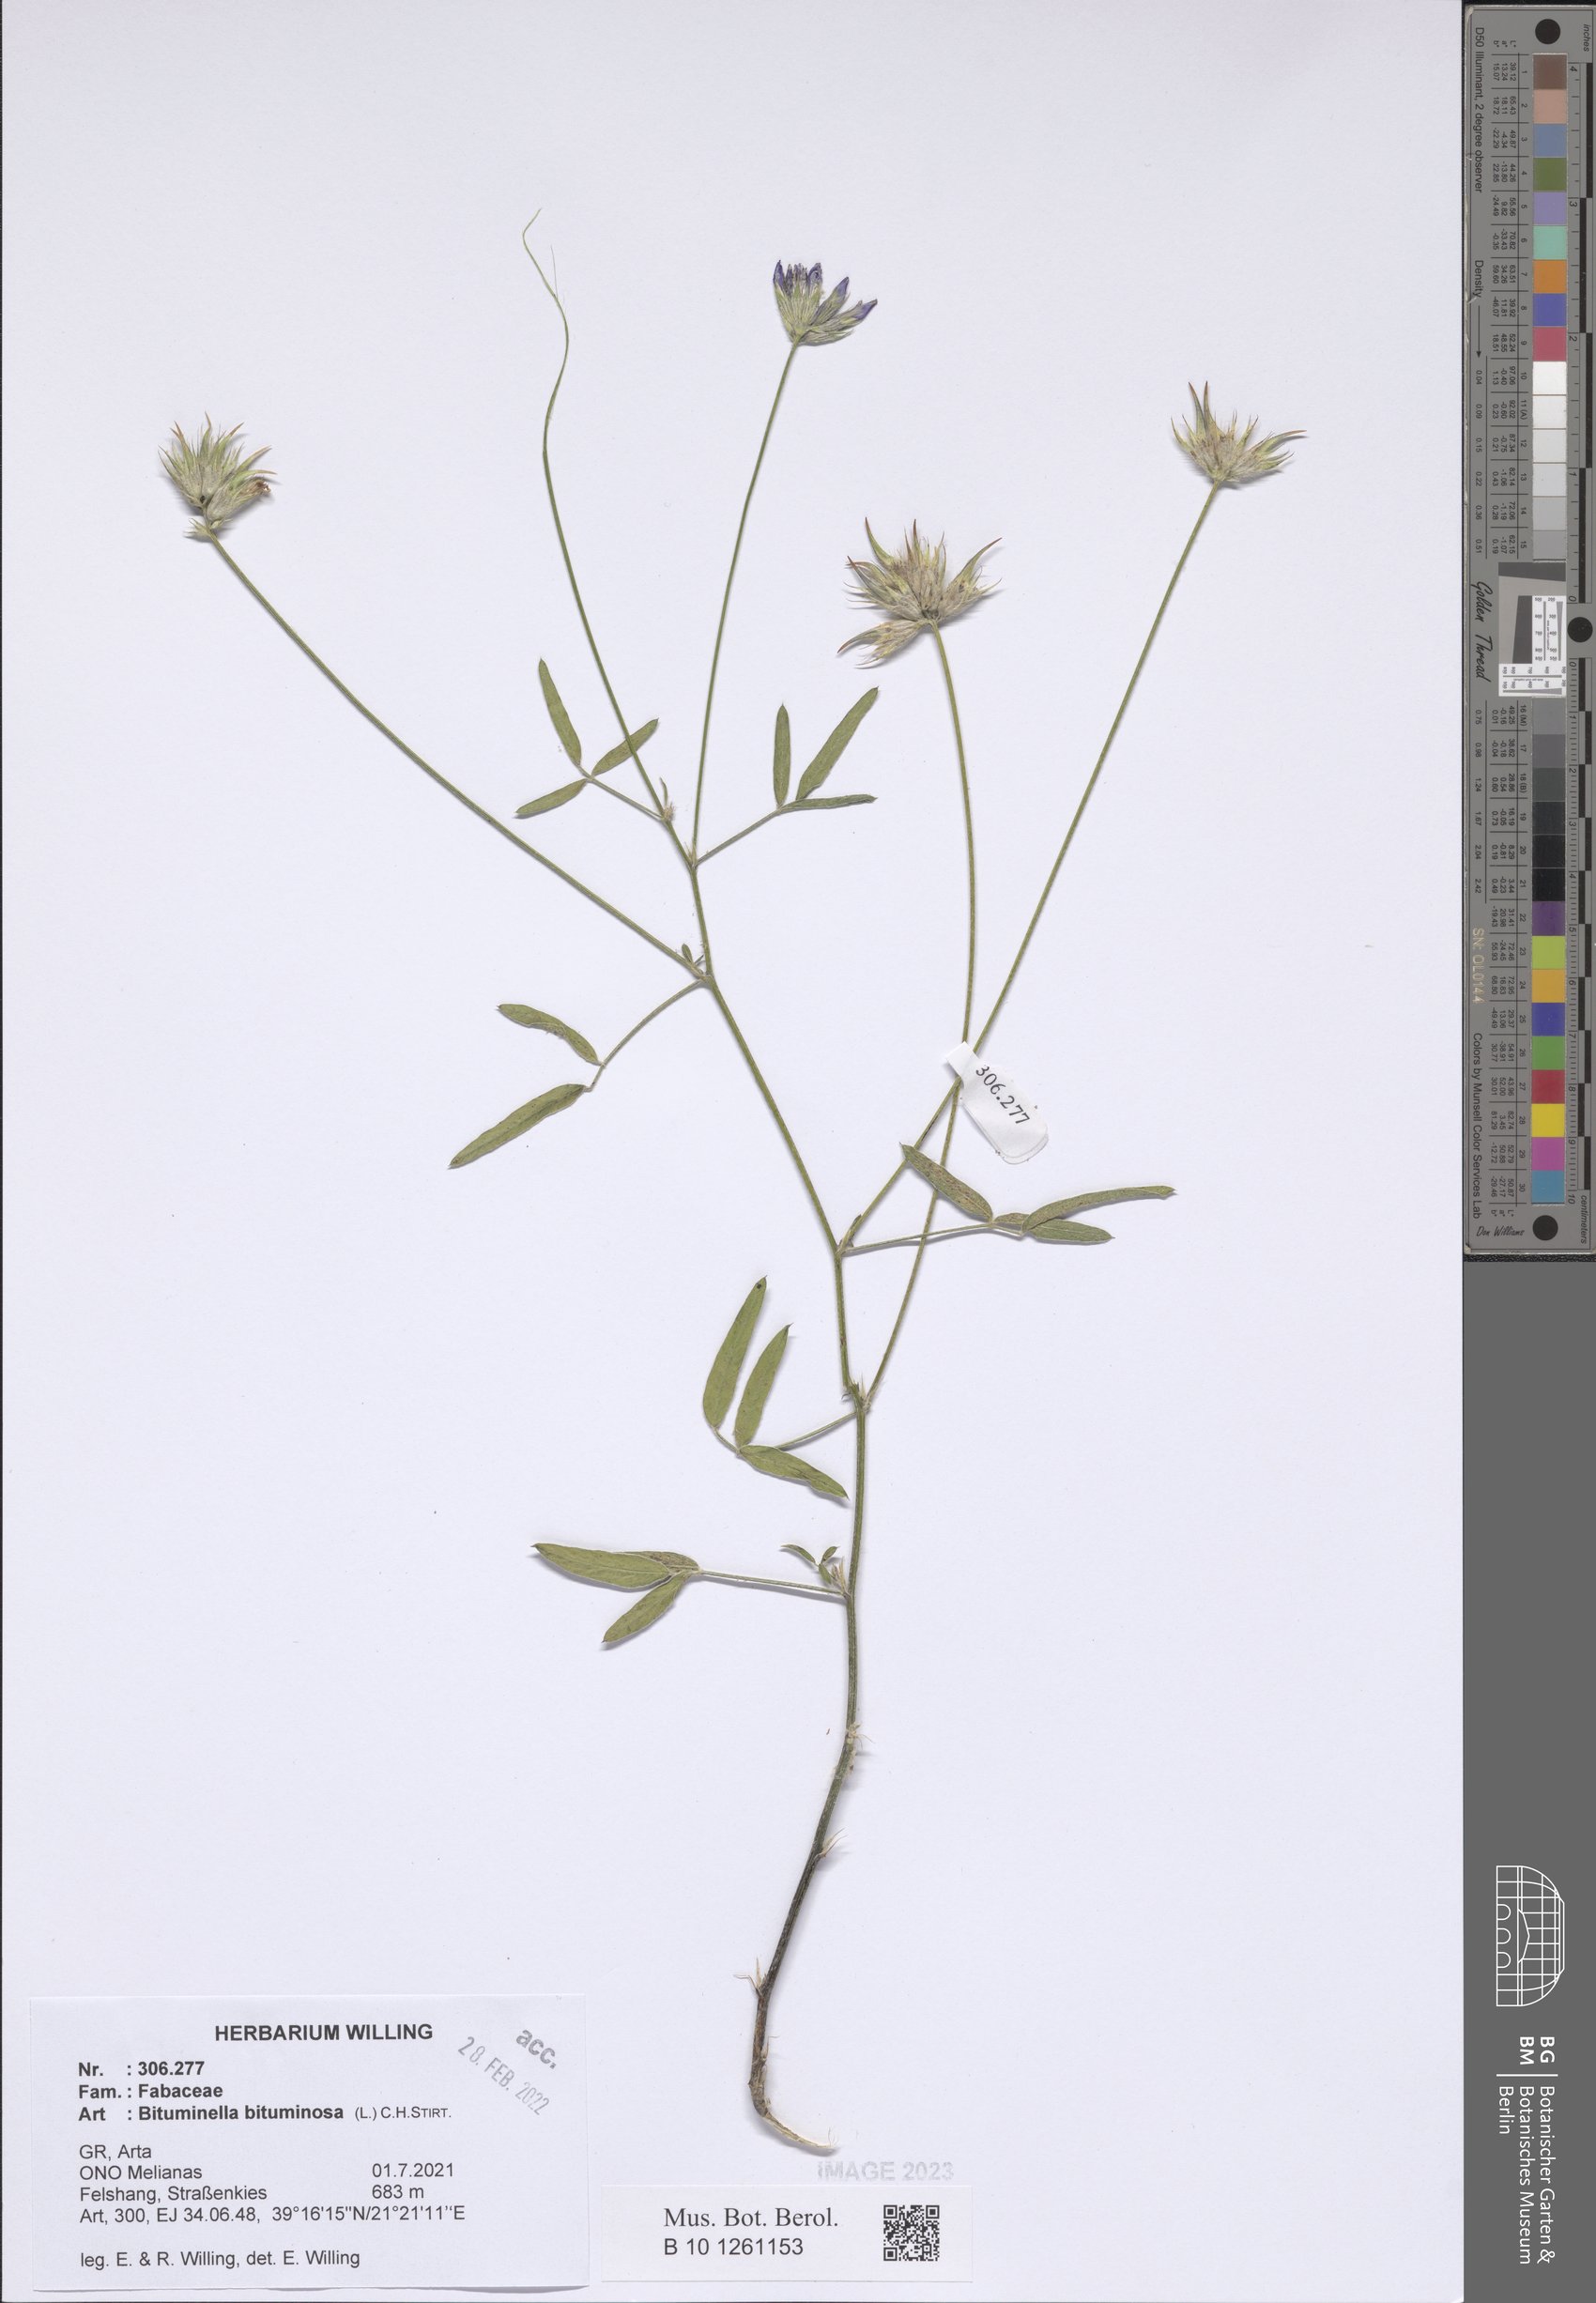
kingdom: Plantae
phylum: Tracheophyta
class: Magnoliopsida
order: Fabales
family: Fabaceae
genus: Bituminaria
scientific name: Bituminaria bituminosa
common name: Arabian pea
